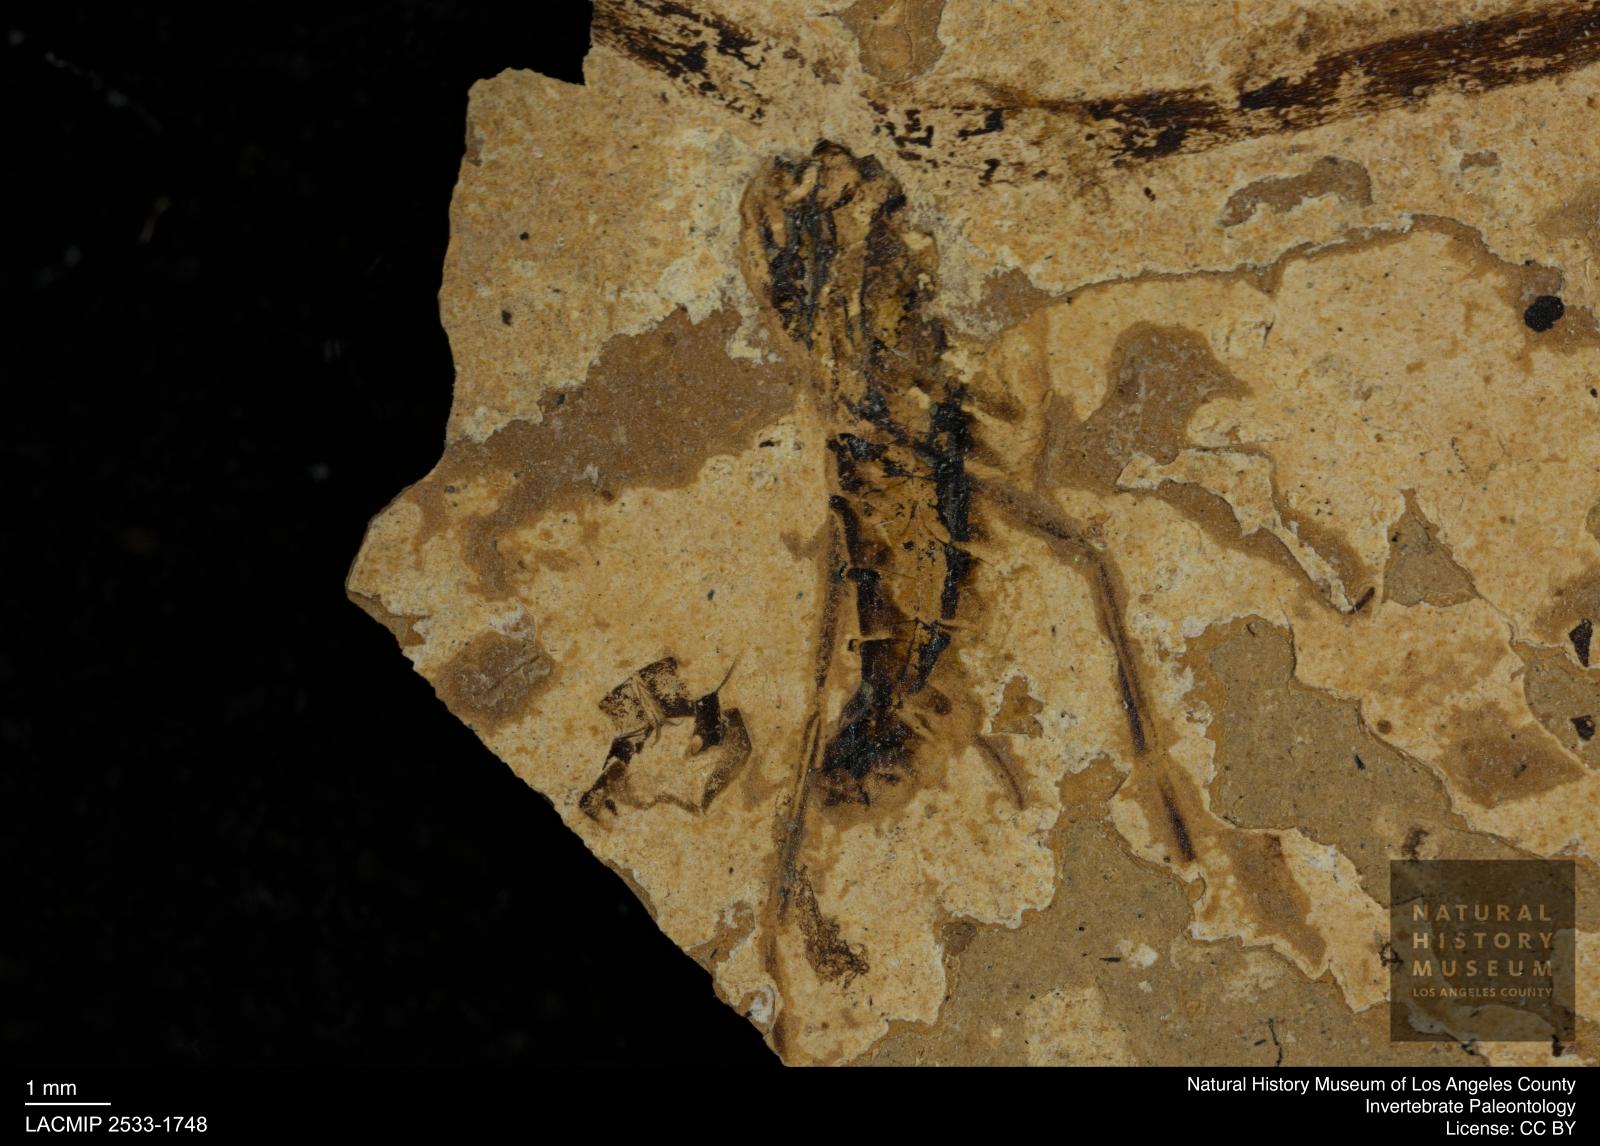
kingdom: Animalia
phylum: Arthropoda
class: Insecta
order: Hemiptera
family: Notonectidae
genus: Notonecta
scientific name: Notonecta
